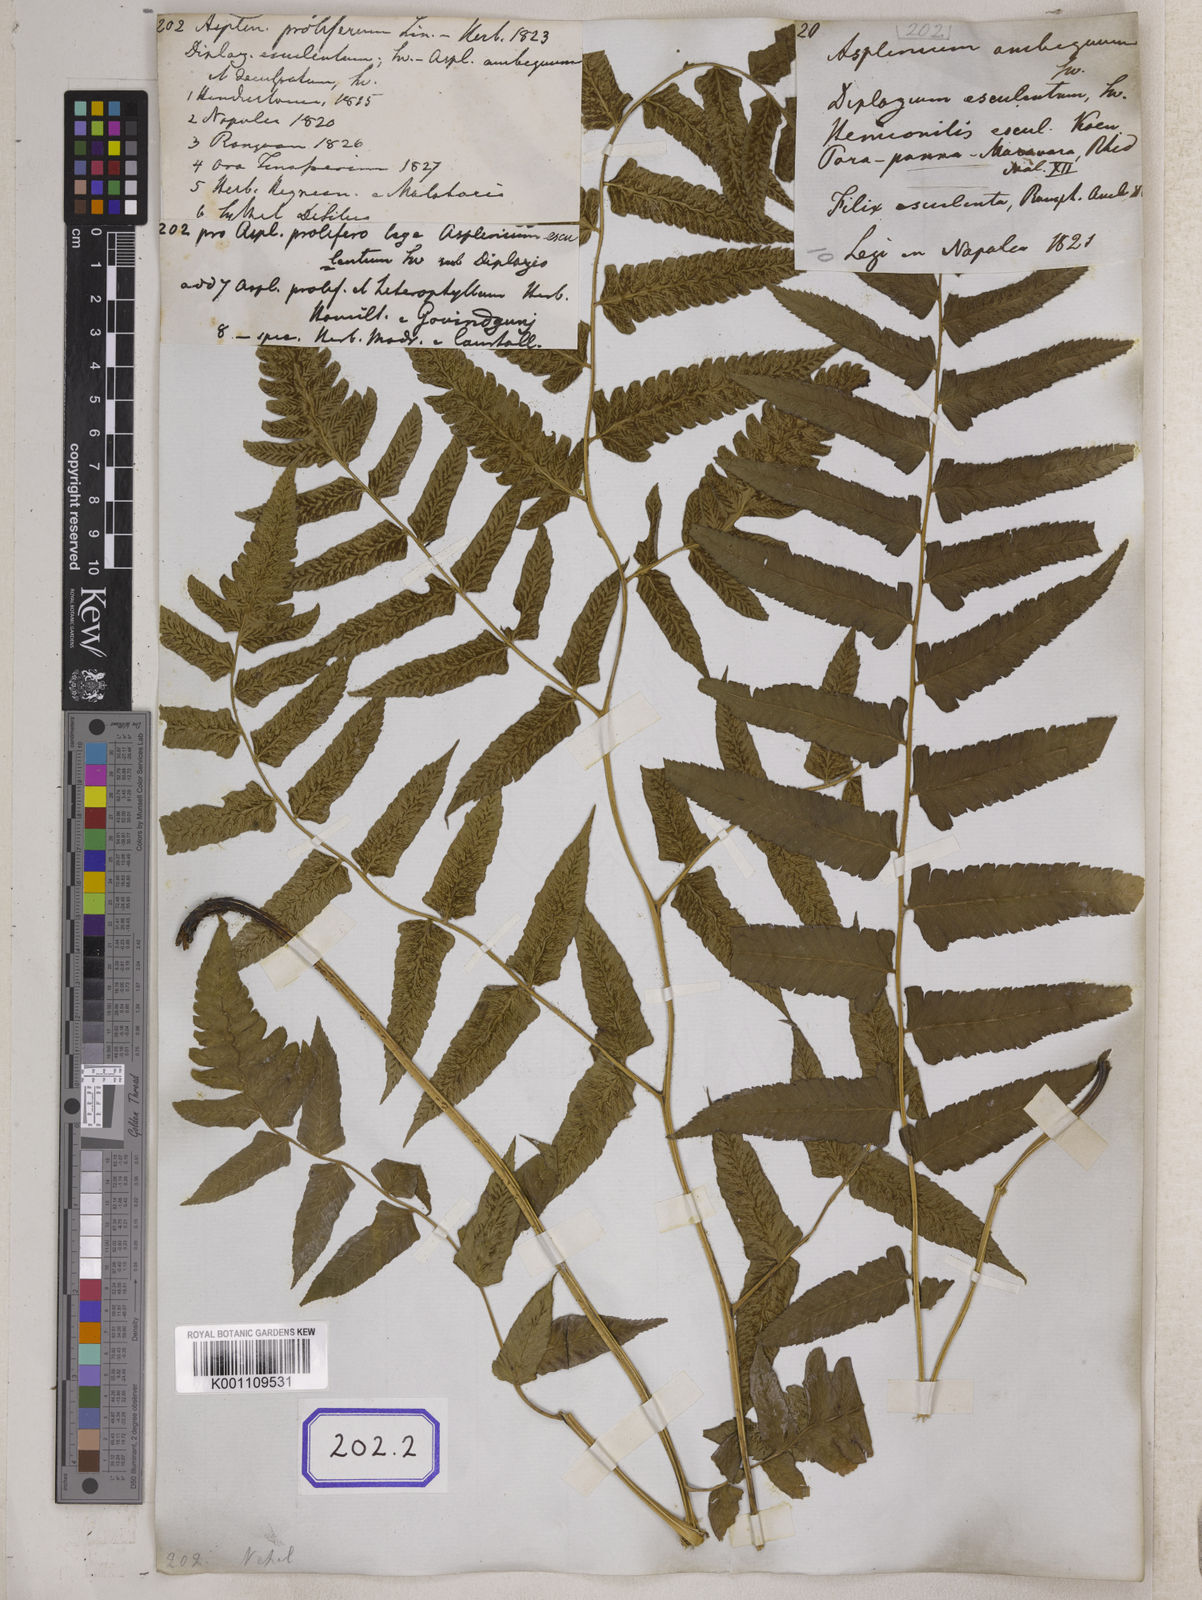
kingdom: Plantae
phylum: Tracheophyta
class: Polypodiopsida
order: Polypodiales
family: Aspleniaceae
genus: Asplenium
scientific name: Asplenium
